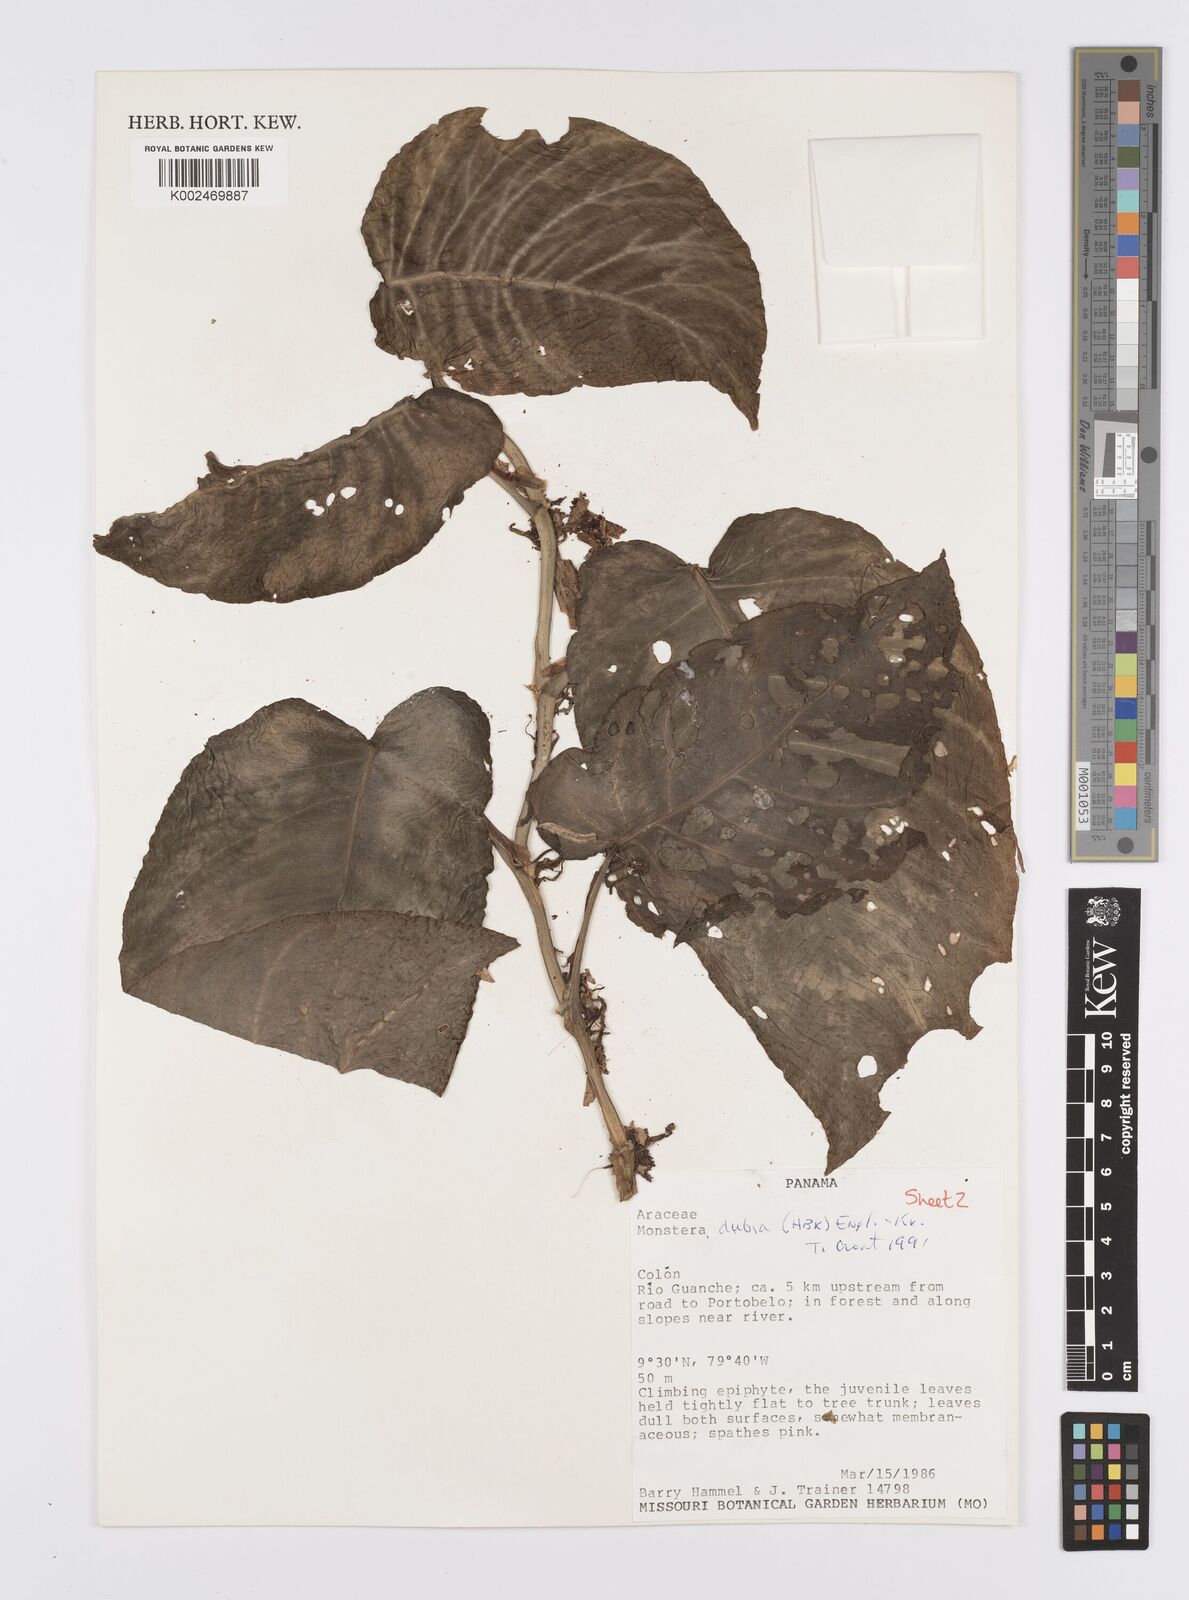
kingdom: Plantae
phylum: Tracheophyta
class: Liliopsida
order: Alismatales
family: Araceae
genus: Monstera
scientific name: Monstera dubia
